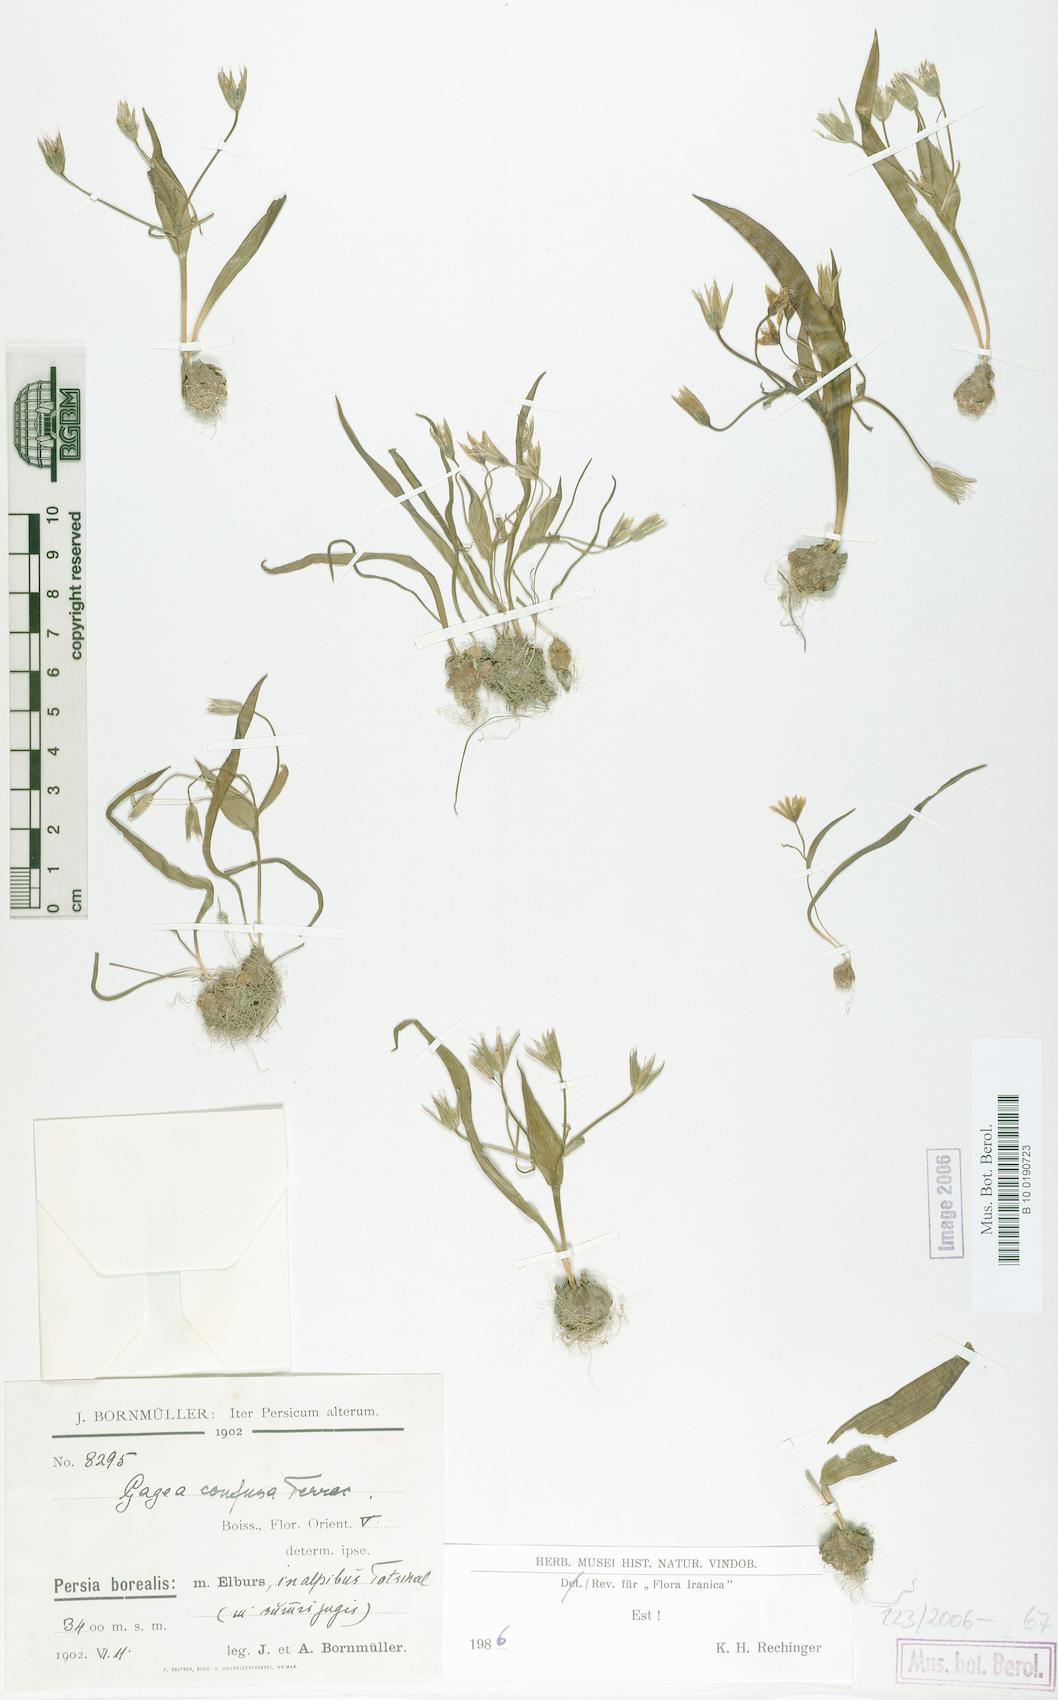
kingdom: Plantae
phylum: Tracheophyta
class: Liliopsida
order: Liliales
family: Liliaceae
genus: Gagea
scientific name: Gagea confusa
